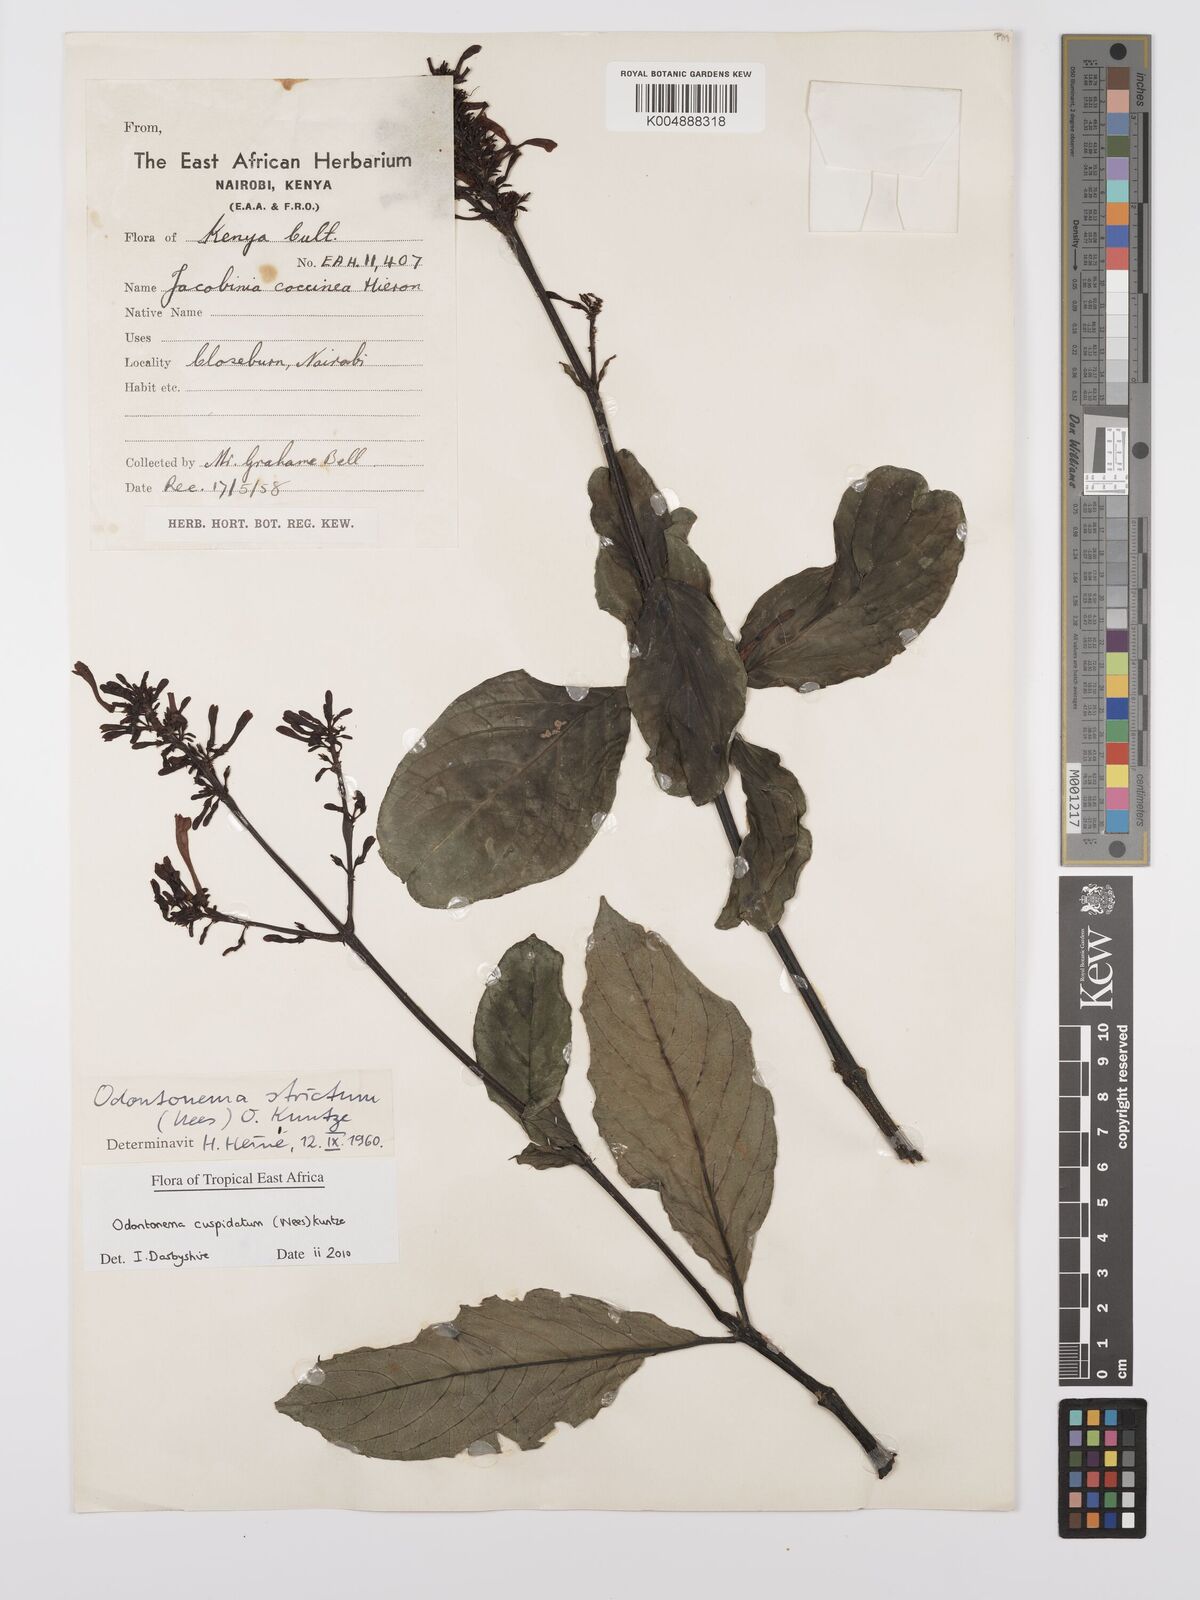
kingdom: Plantae
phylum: Tracheophyta
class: Magnoliopsida
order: Lamiales
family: Acanthaceae
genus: Odontonema
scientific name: Odontonema cuspidatum
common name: Mottled toothedthread
